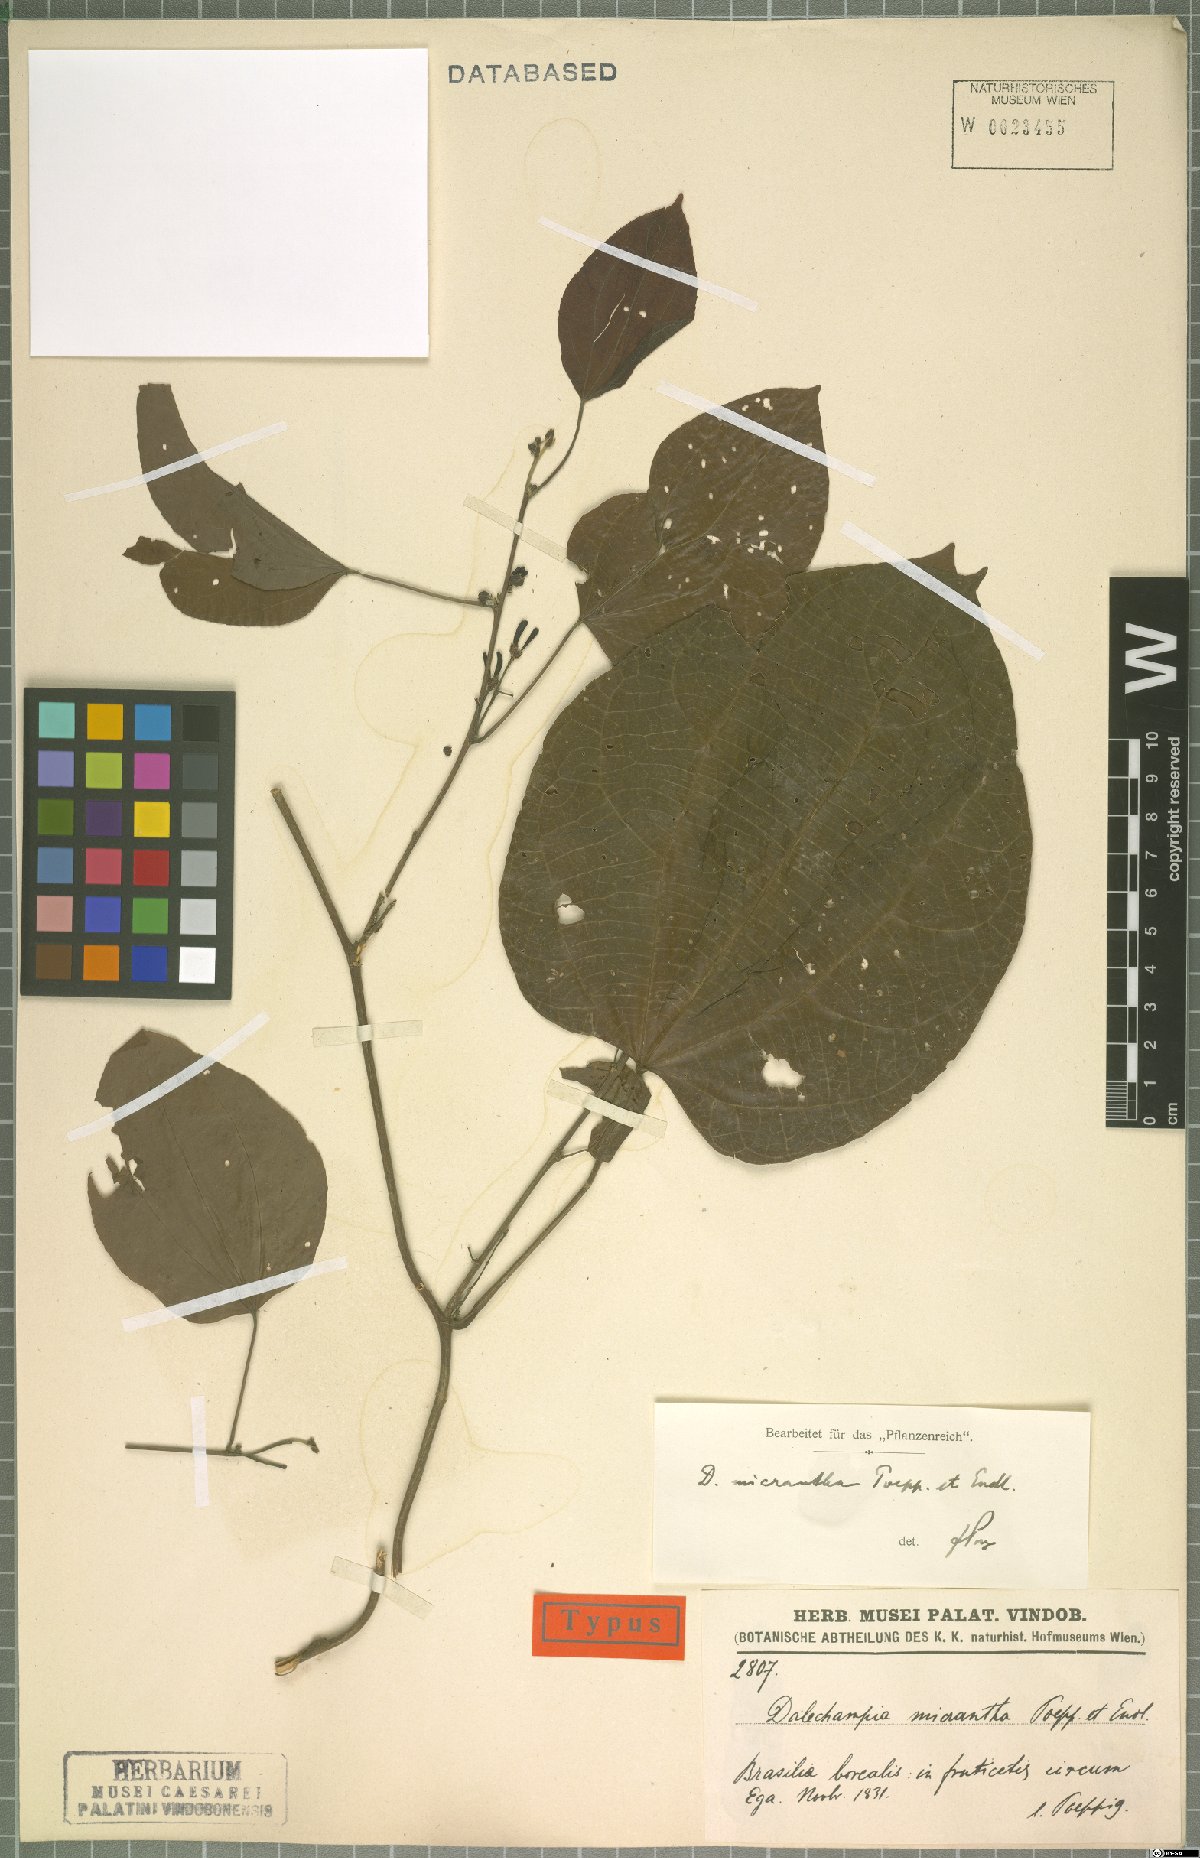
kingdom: Plantae
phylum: Tracheophyta
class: Magnoliopsida
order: Malpighiales
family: Euphorbiaceae
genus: Dalechampia
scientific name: Dalechampia micrantha
